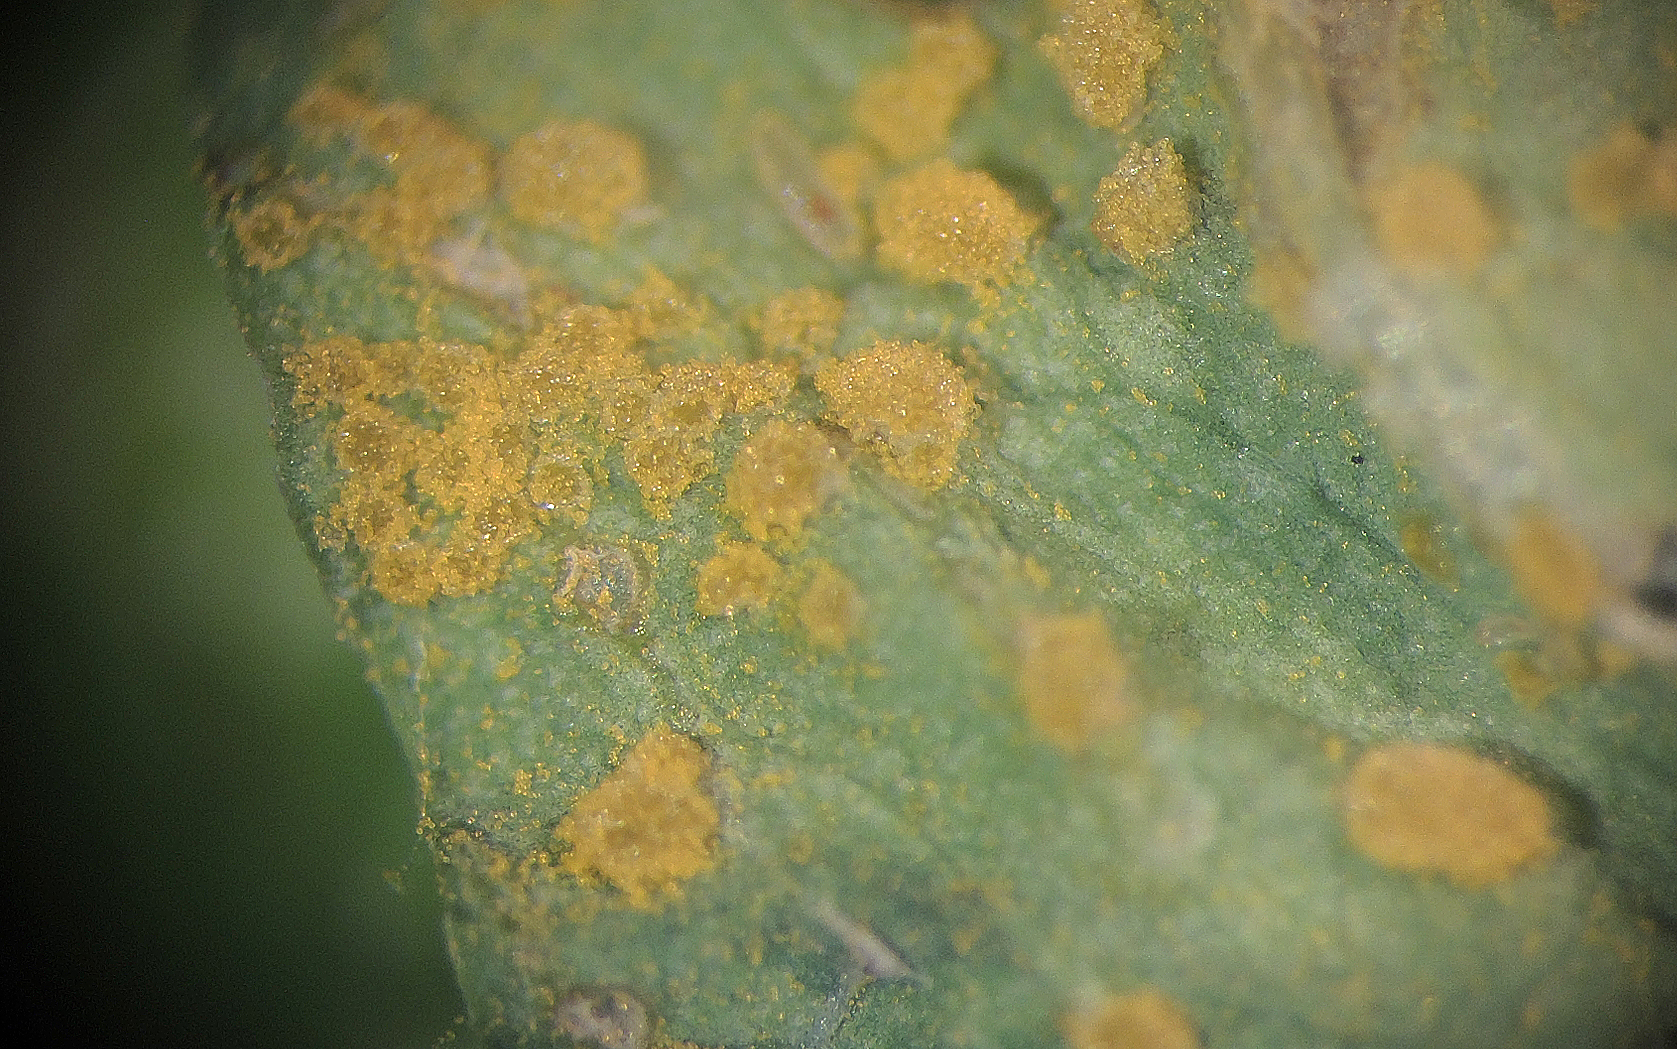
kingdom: Fungi
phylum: Basidiomycota
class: Pucciniomycetes
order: Pucciniales
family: Melampsoraceae
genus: Melampsora
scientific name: Melampsora euphorbiae
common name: vortemælk-skorperust
